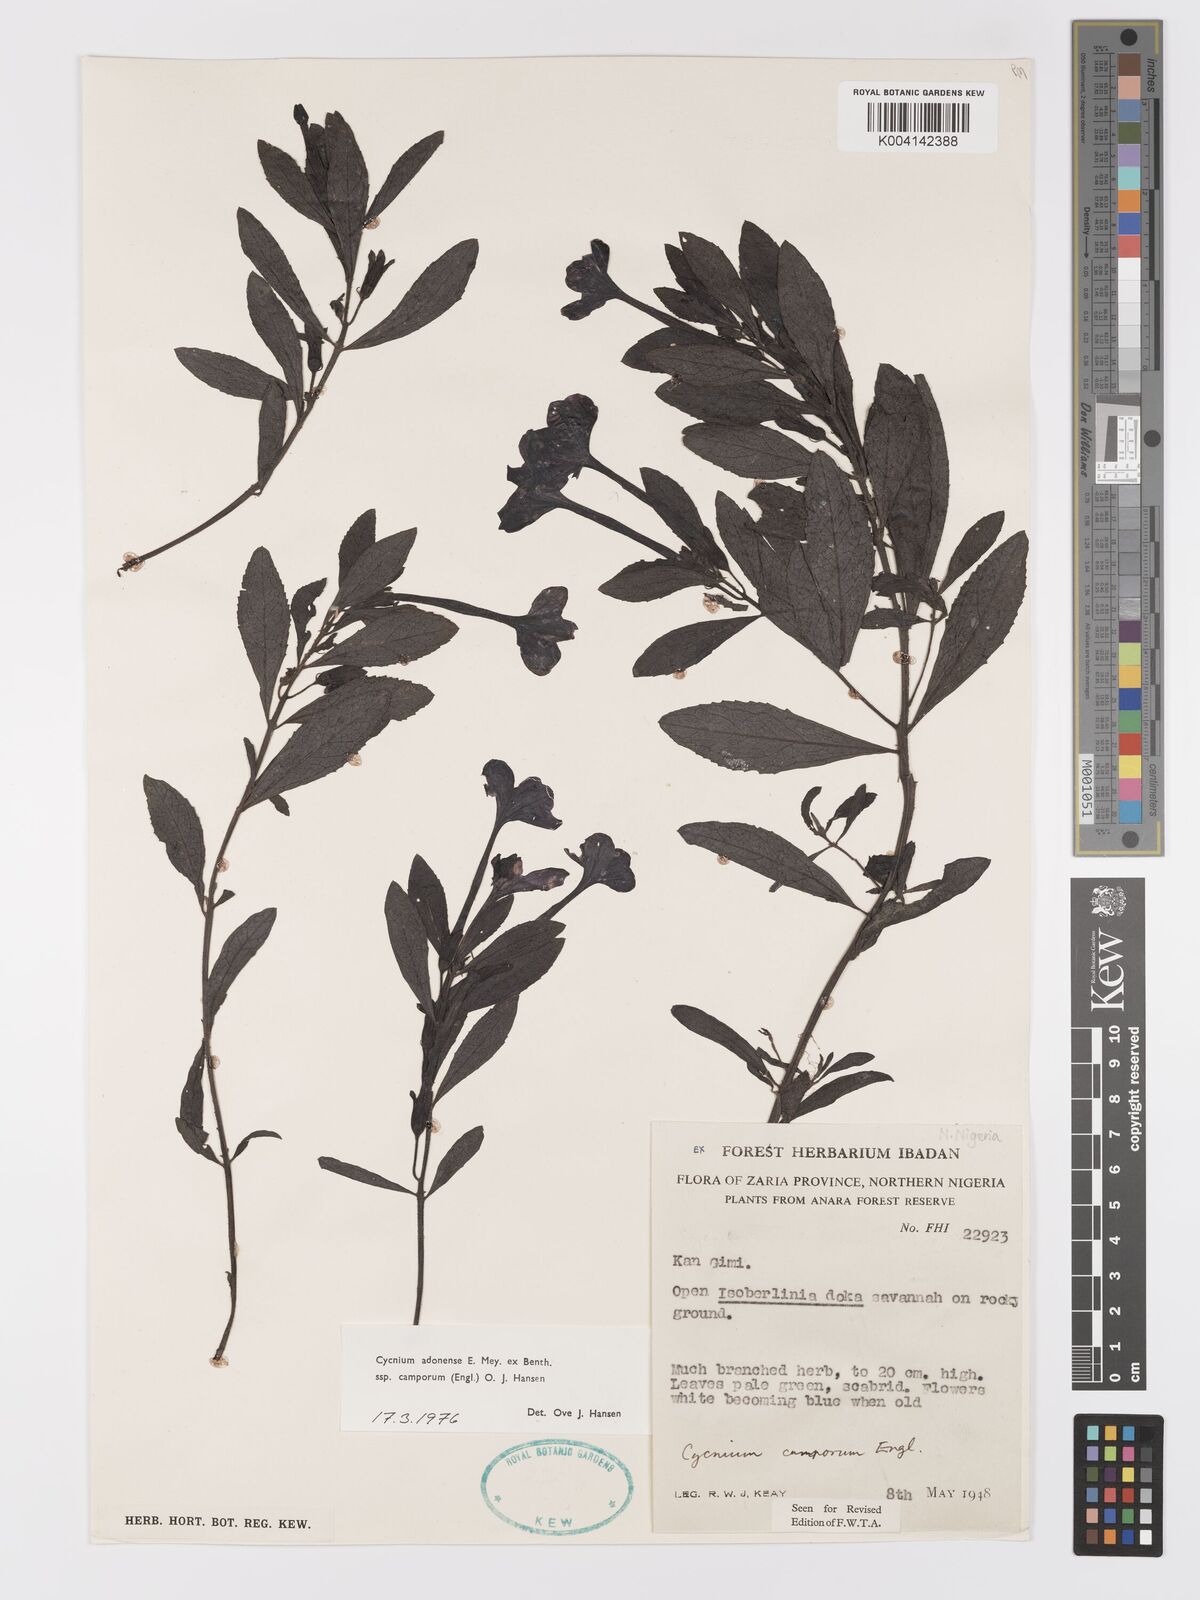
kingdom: Plantae
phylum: Tracheophyta
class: Magnoliopsida
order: Lamiales
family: Orobanchaceae
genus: Cycnium
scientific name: Cycnium adoense
